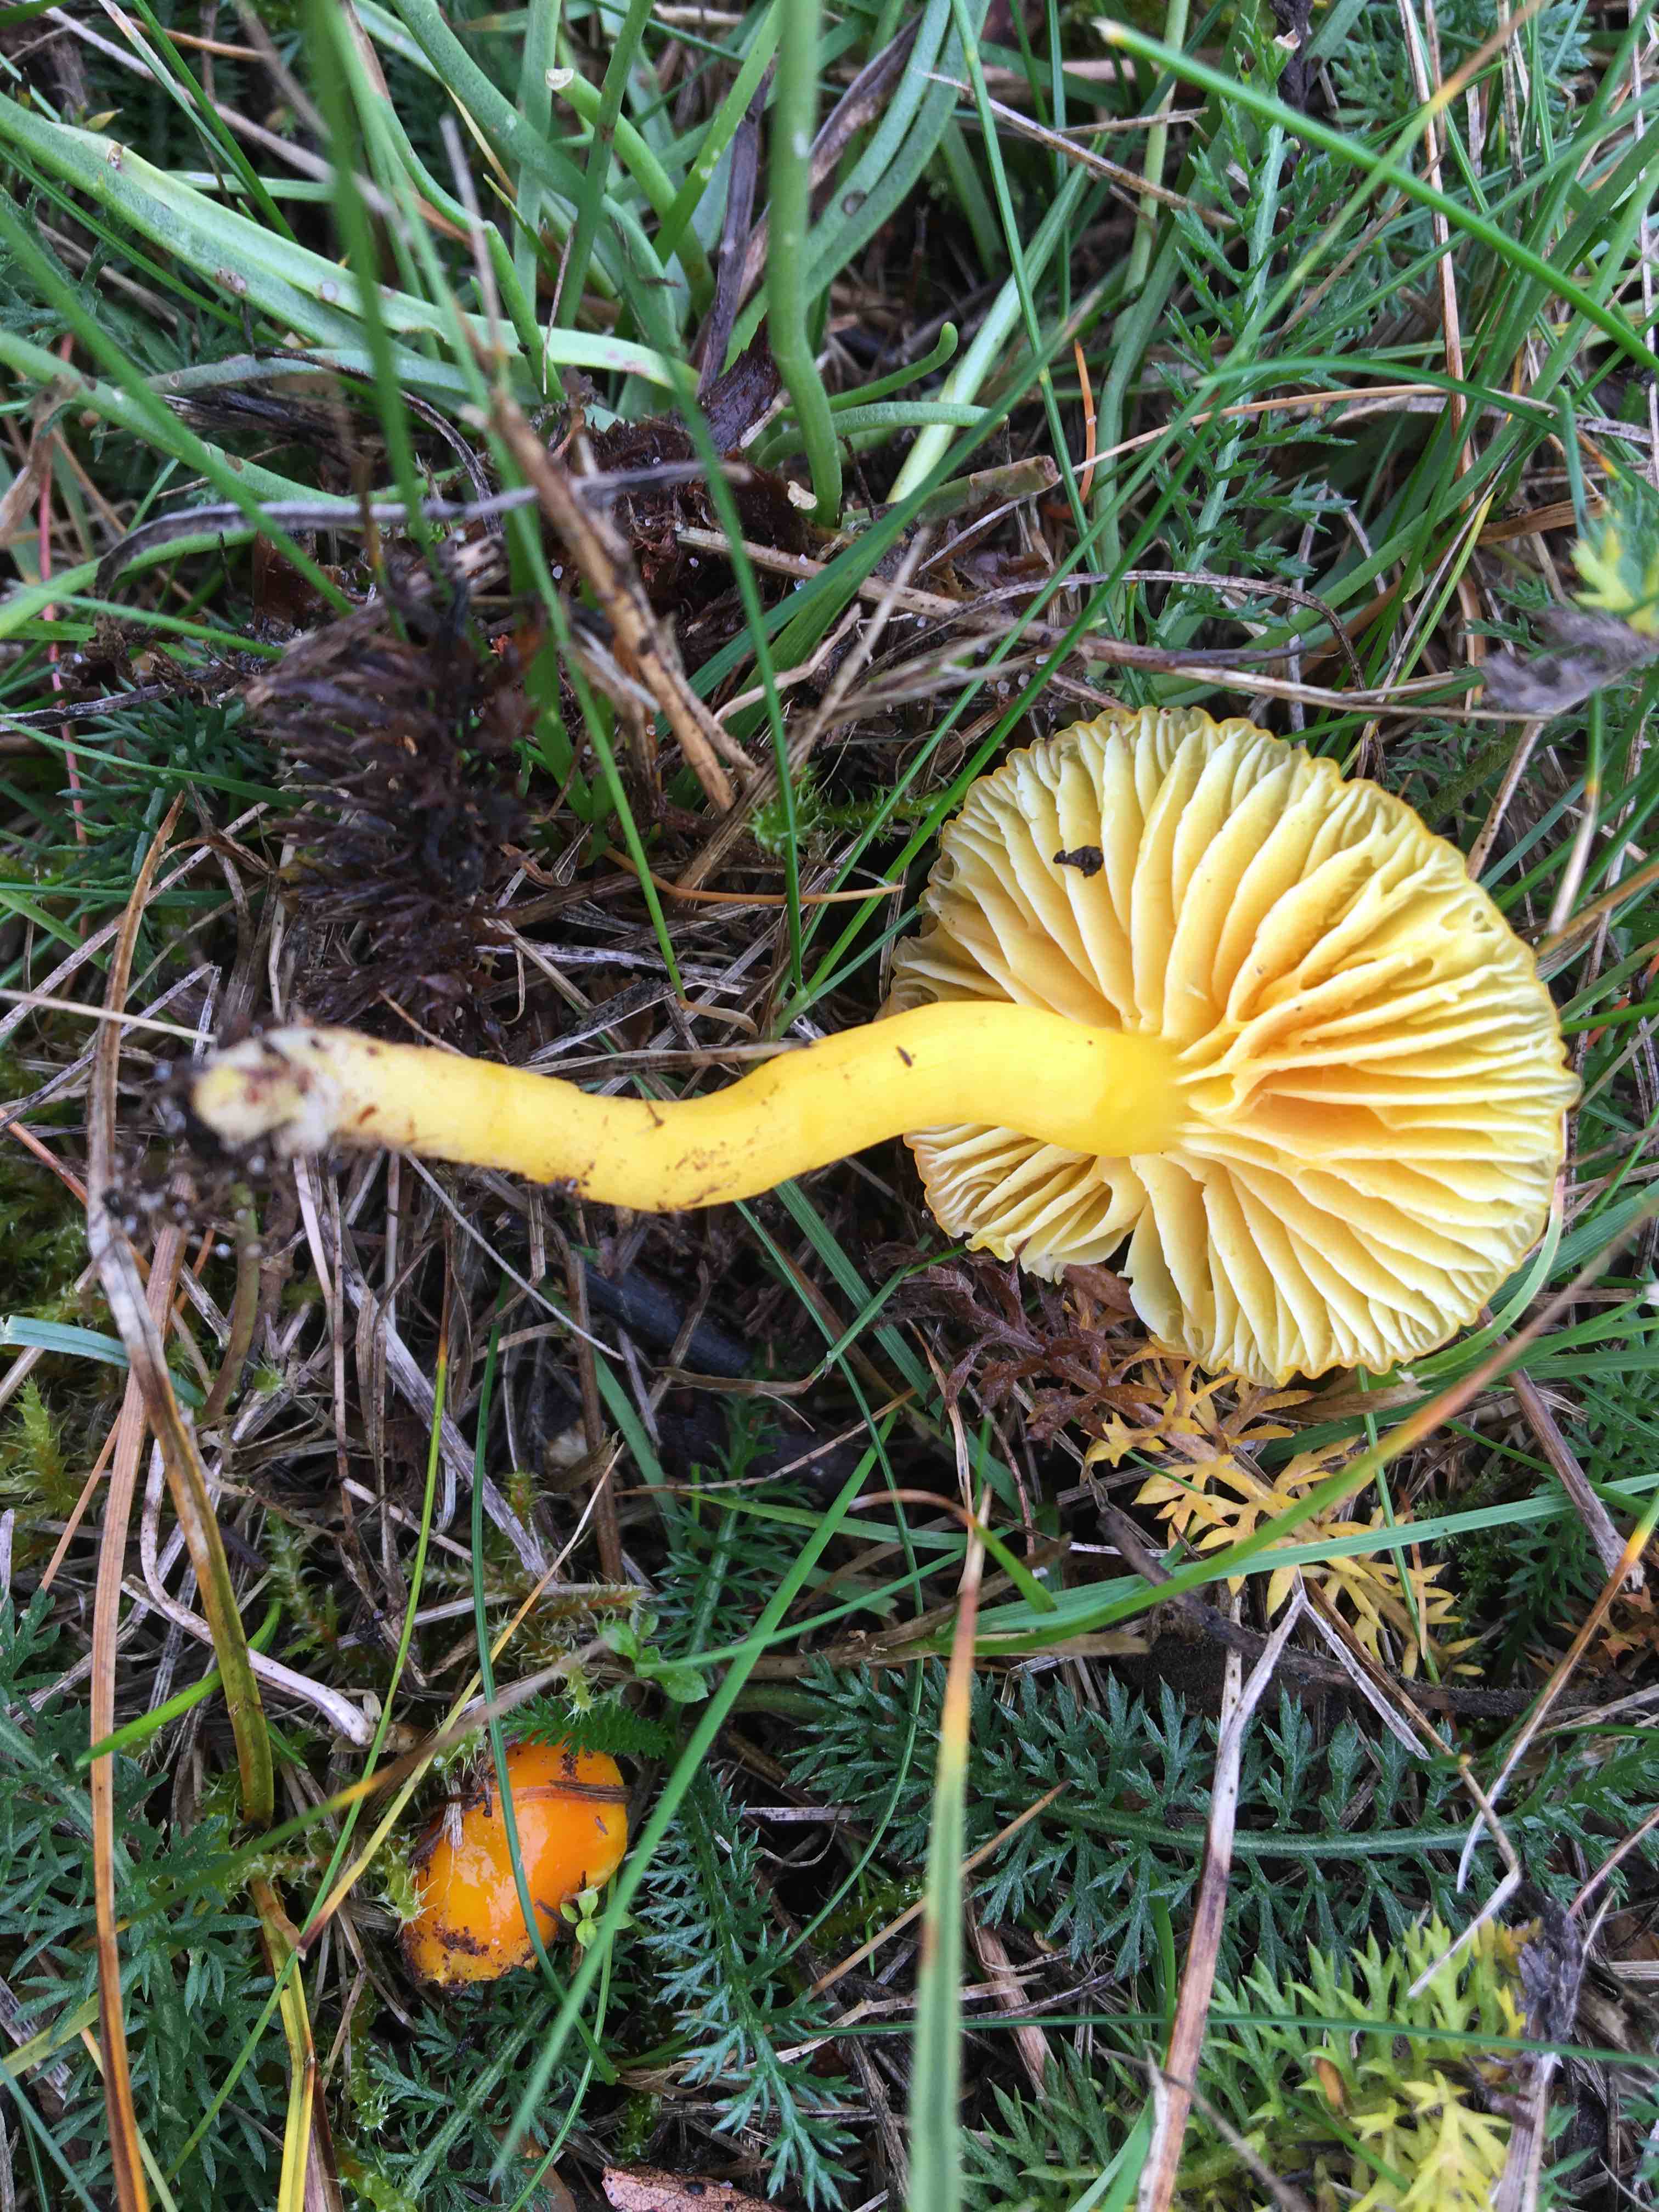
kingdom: Fungi
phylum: Basidiomycota
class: Agaricomycetes
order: Agaricales
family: Hygrophoraceae
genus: Hygrocybe
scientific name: Hygrocybe ceracea
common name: voksgul vokshat
